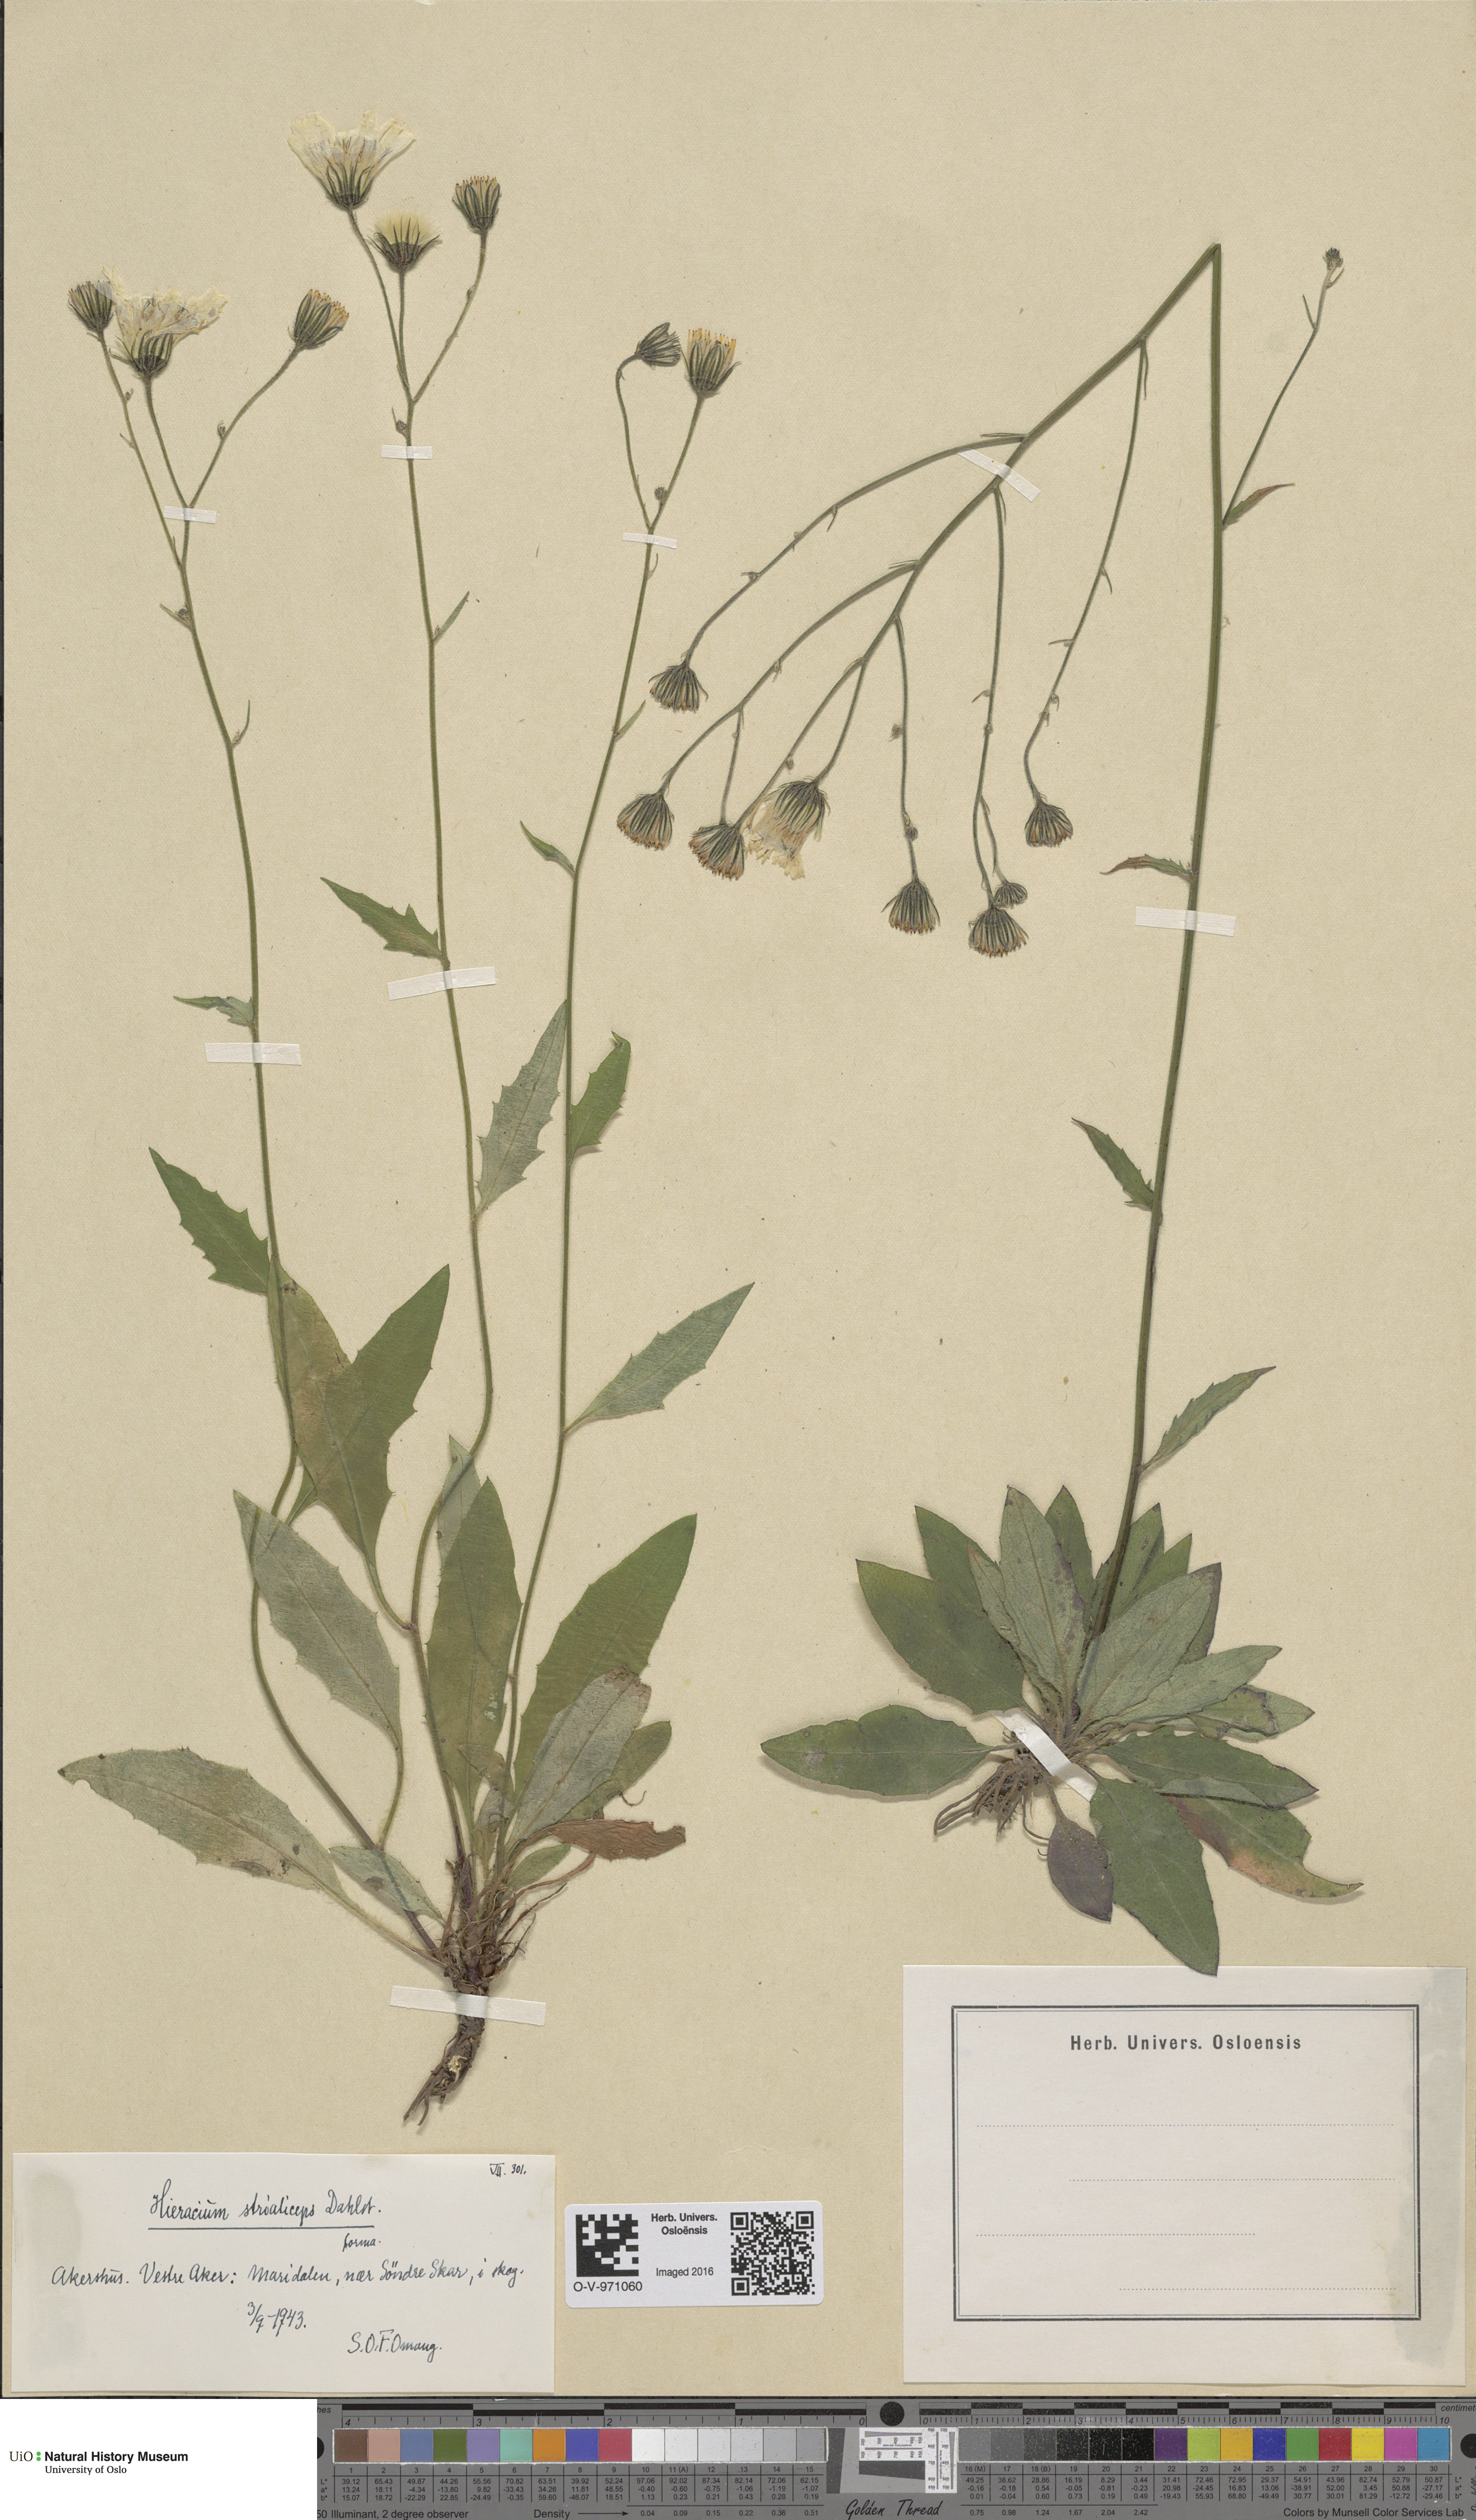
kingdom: Plantae
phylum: Tracheophyta
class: Magnoliopsida
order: Asterales
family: Asteraceae
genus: Hieracium
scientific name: Hieracium
